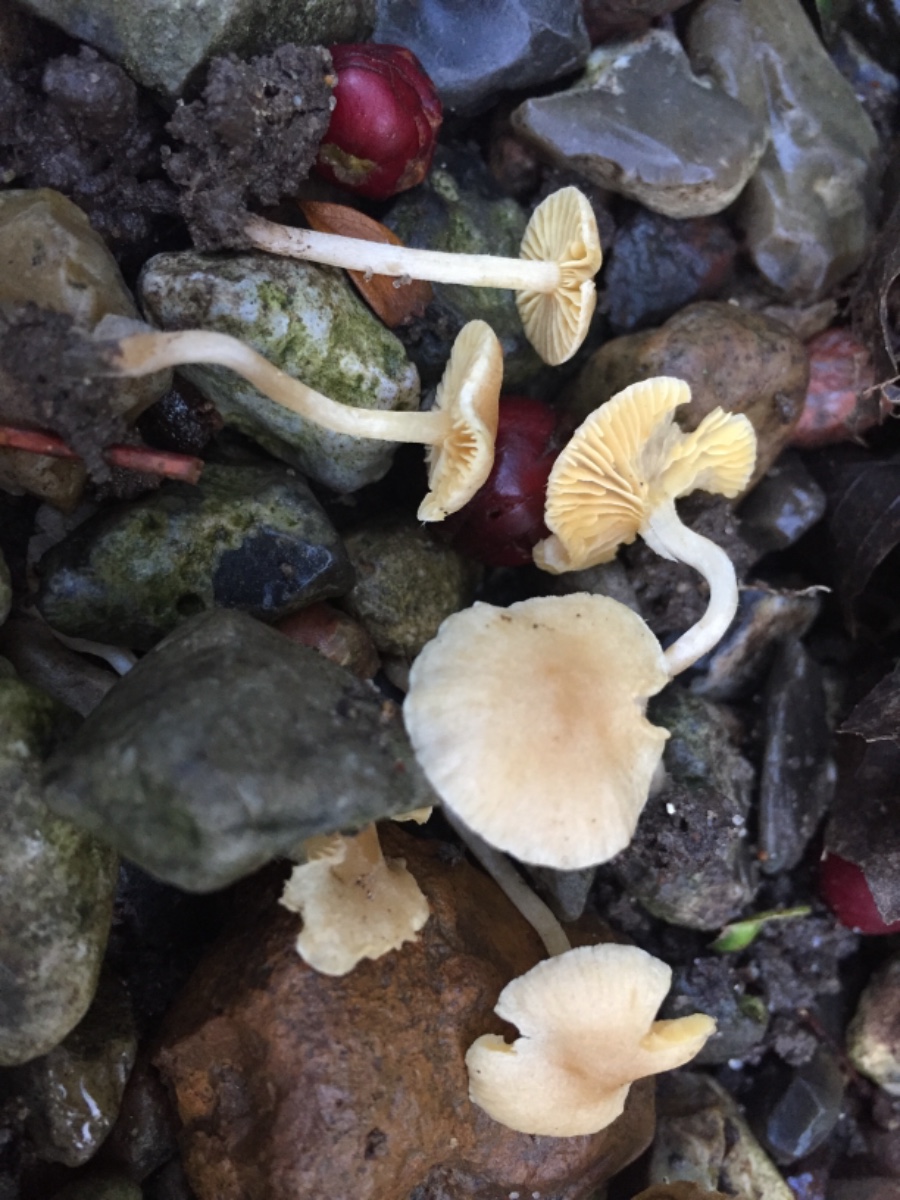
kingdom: Fungi
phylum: Basidiomycota
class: Agaricomycetes
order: Agaricales
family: Tubariaceae
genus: Tubaria
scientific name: Tubaria dispersa
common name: tjørne-fnughat
